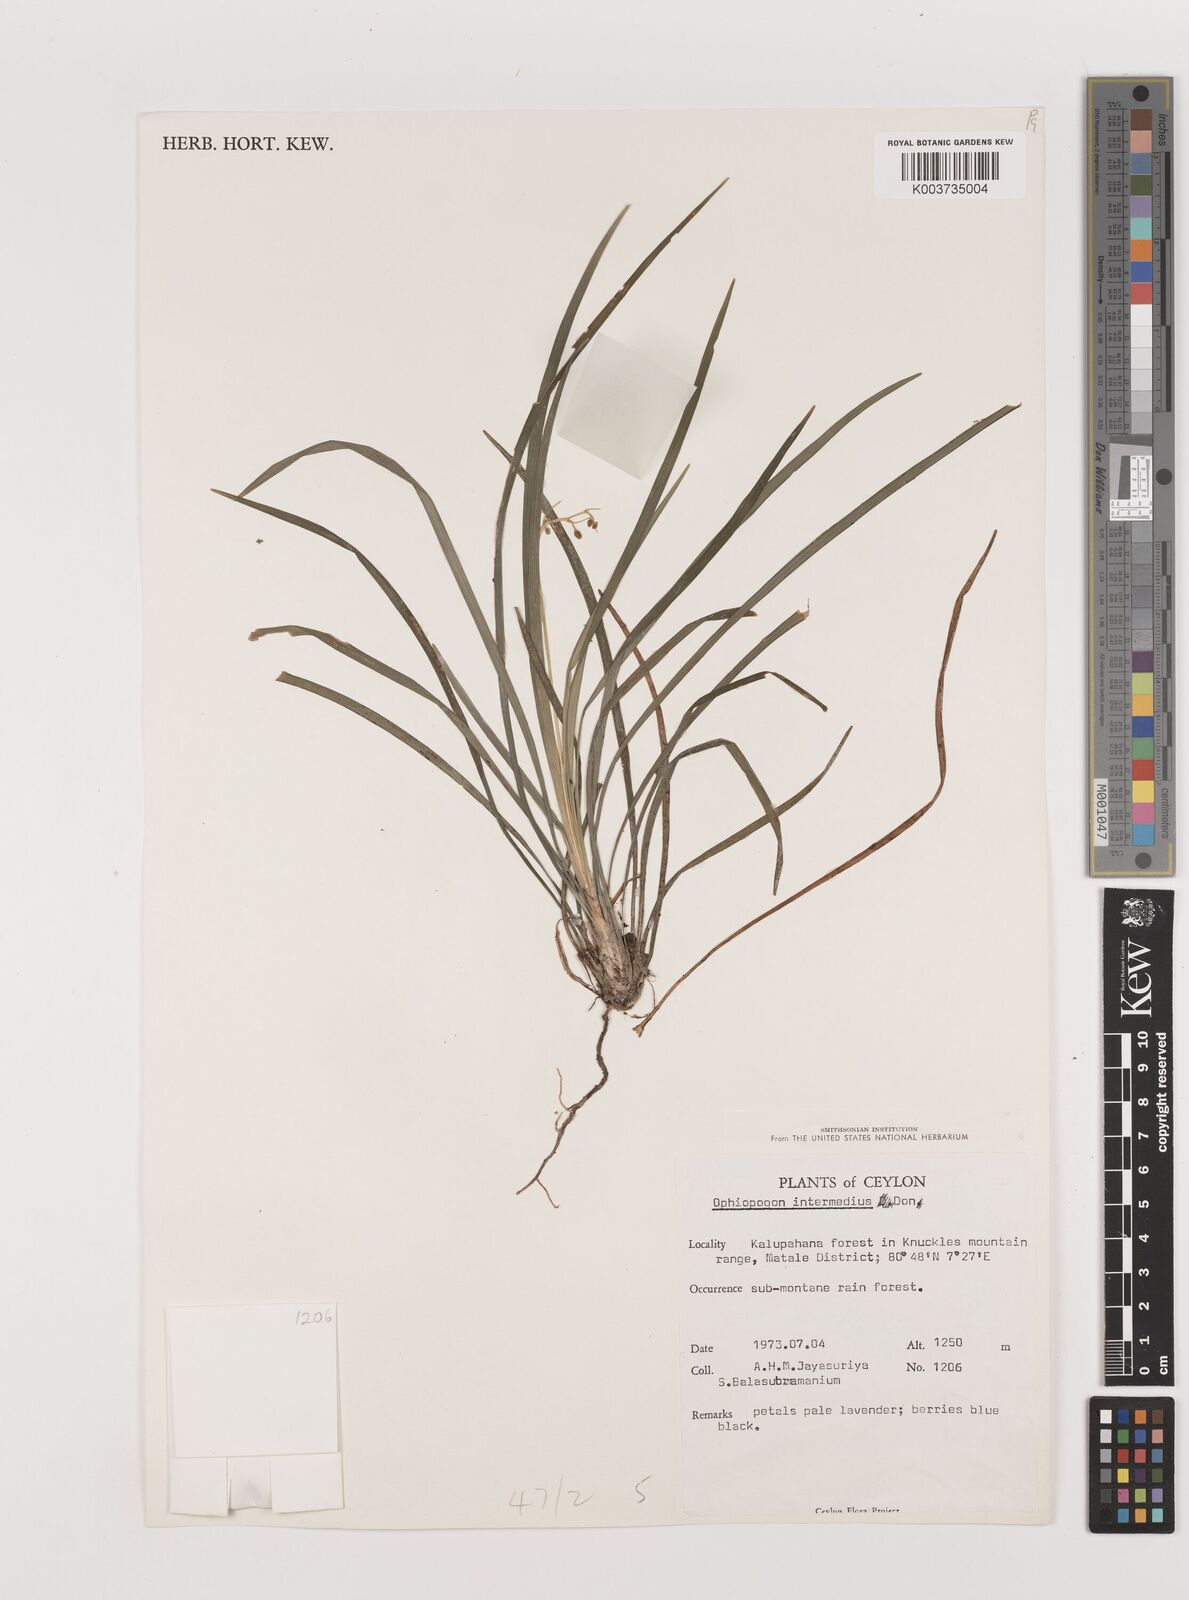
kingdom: Plantae
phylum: Tracheophyta
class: Liliopsida
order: Asparagales
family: Asparagaceae
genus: Ophiopogon
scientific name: Ophiopogon intermedius
